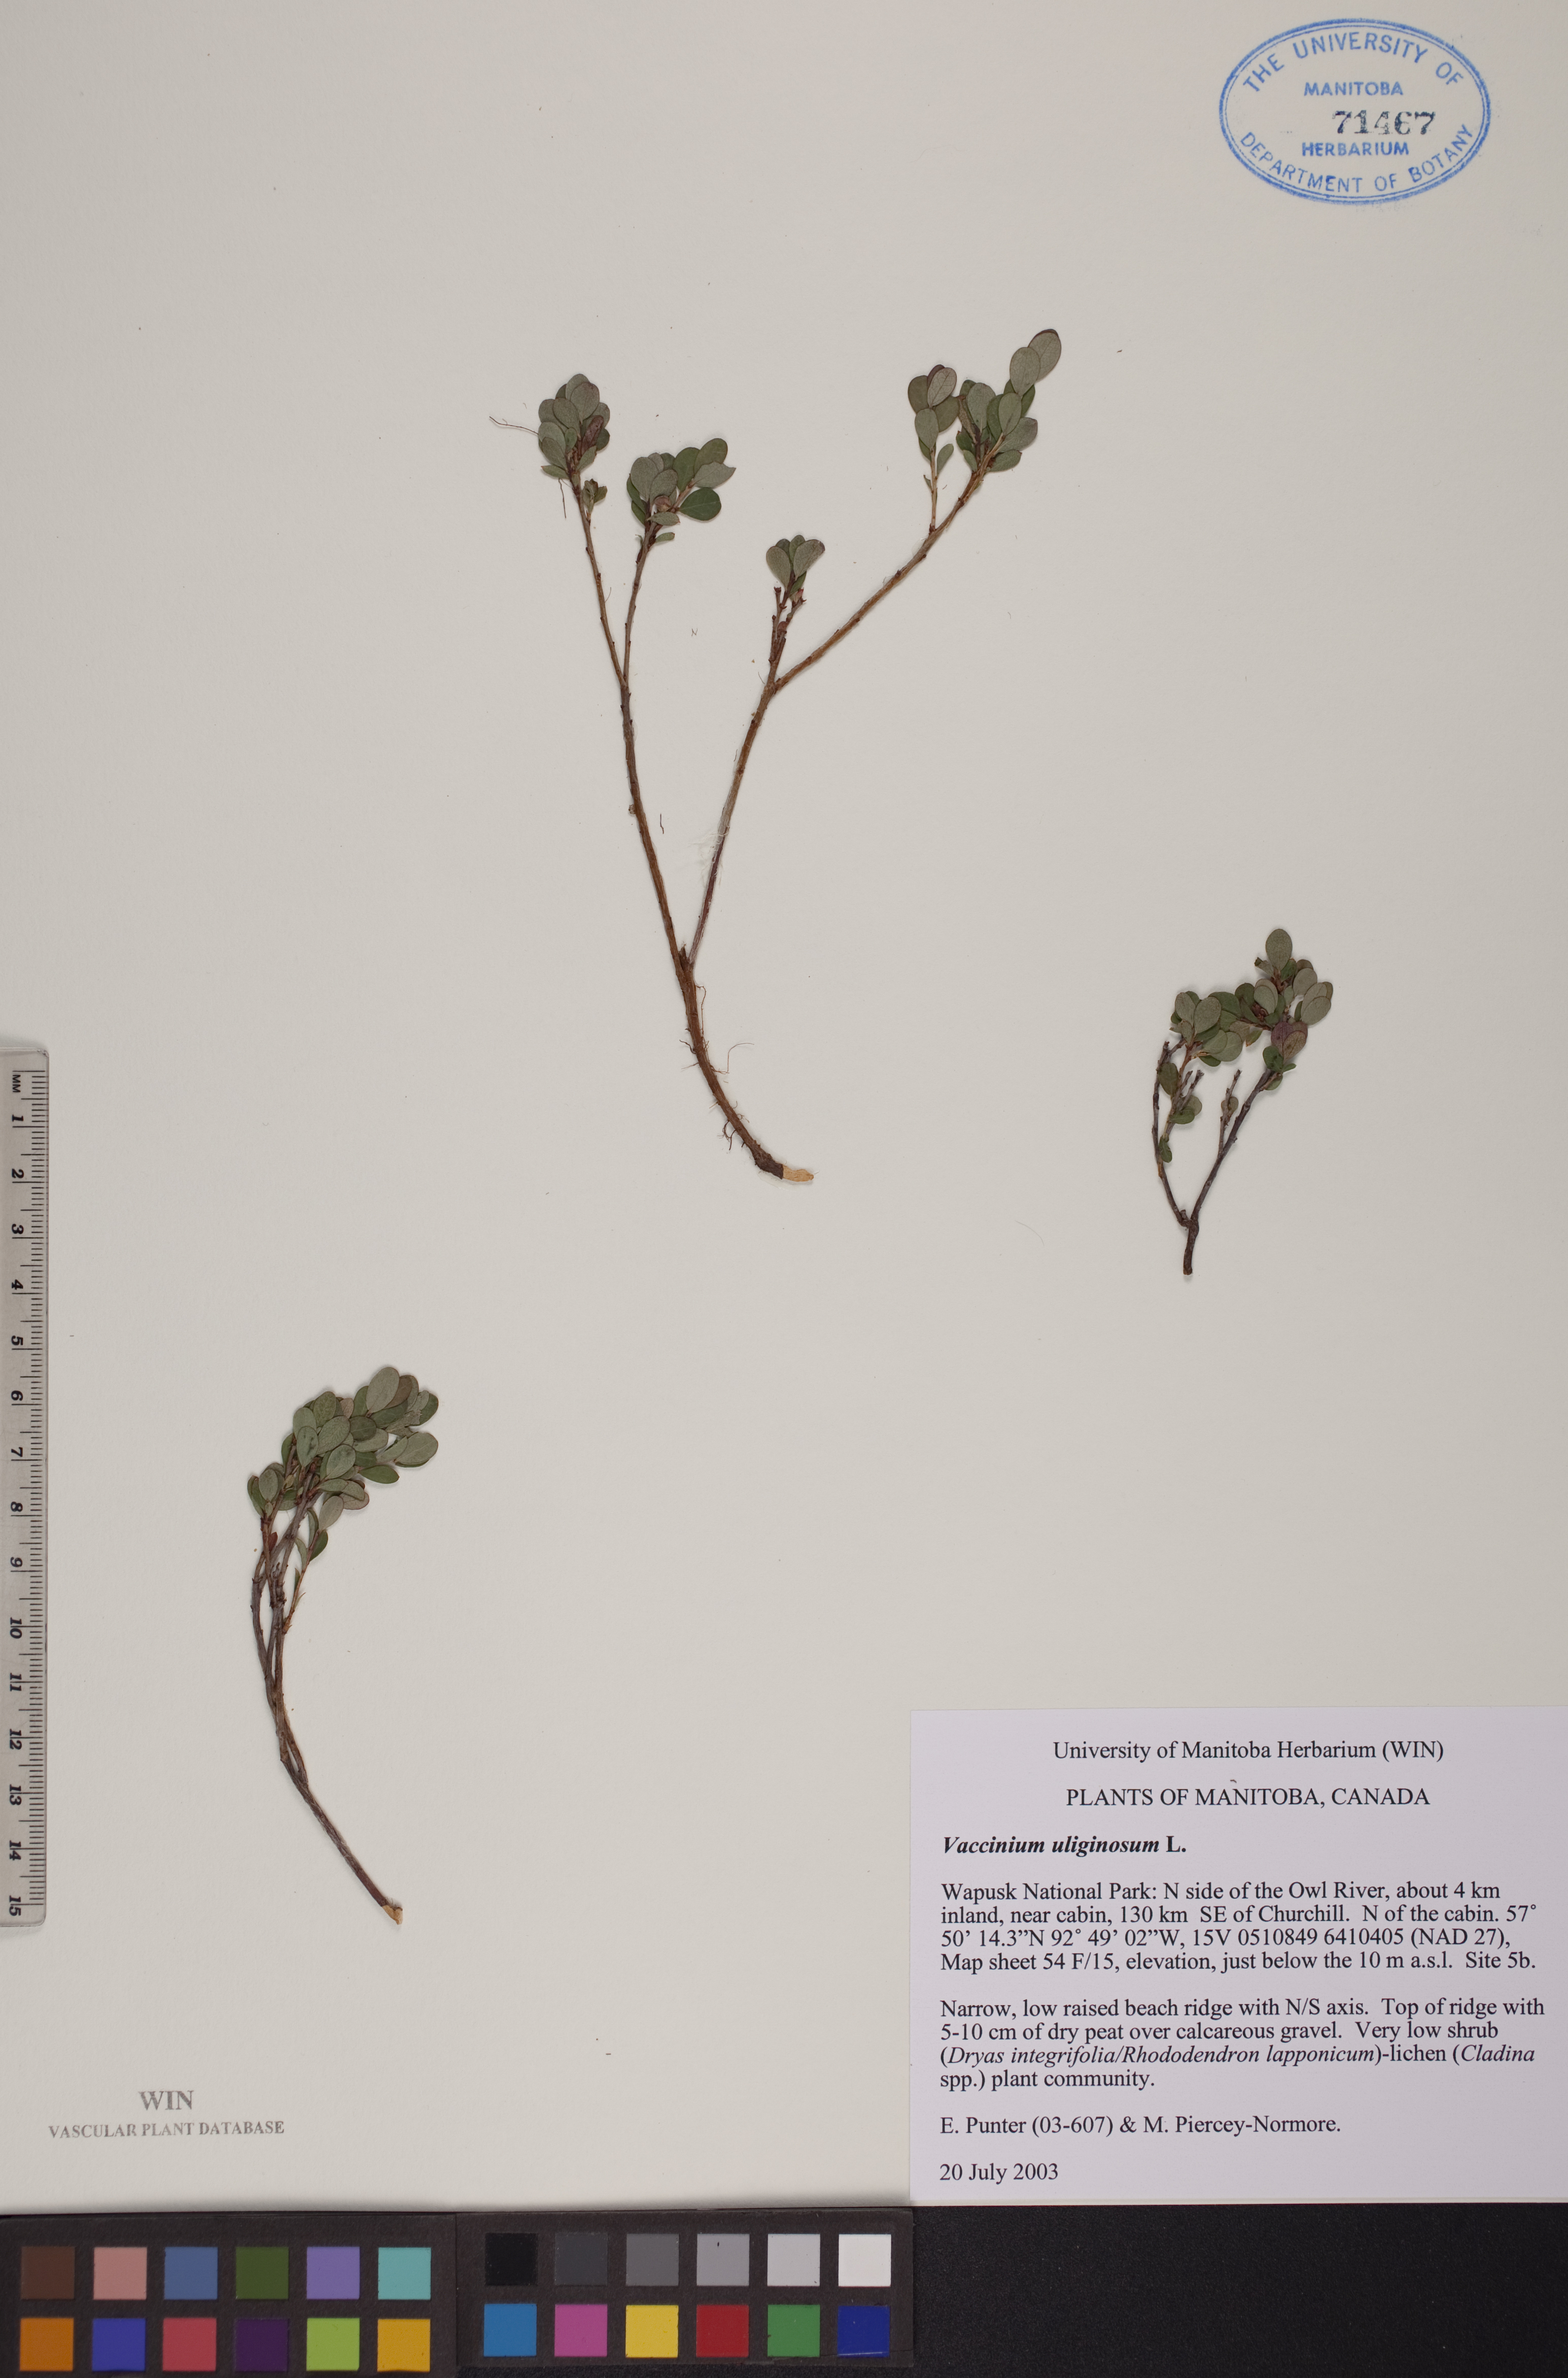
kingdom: Plantae
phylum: Tracheophyta
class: Magnoliopsida
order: Ericales
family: Ericaceae
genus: Vaccinium
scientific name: Vaccinium uliginosum
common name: Bog bilberry
